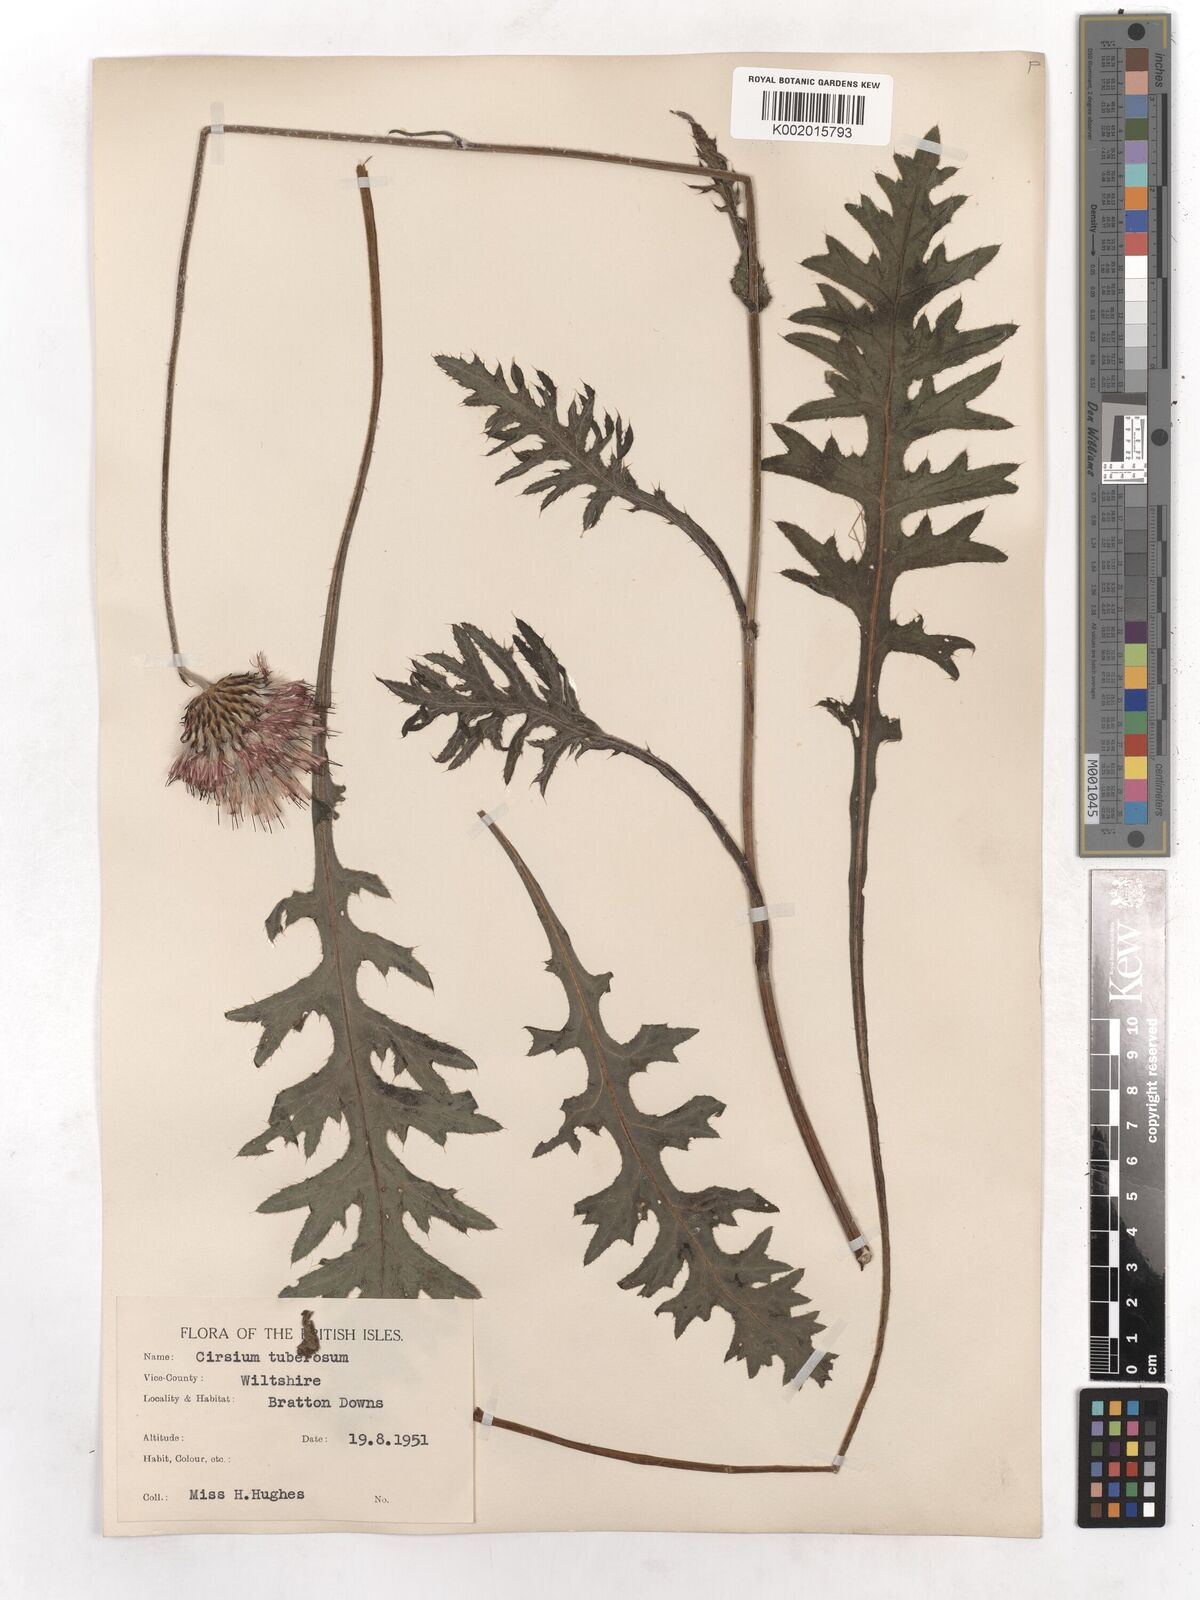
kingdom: Plantae
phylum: Tracheophyta
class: Magnoliopsida
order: Asterales
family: Asteraceae
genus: Cirsium
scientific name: Cirsium tuberosum
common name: Tuberous thistle
